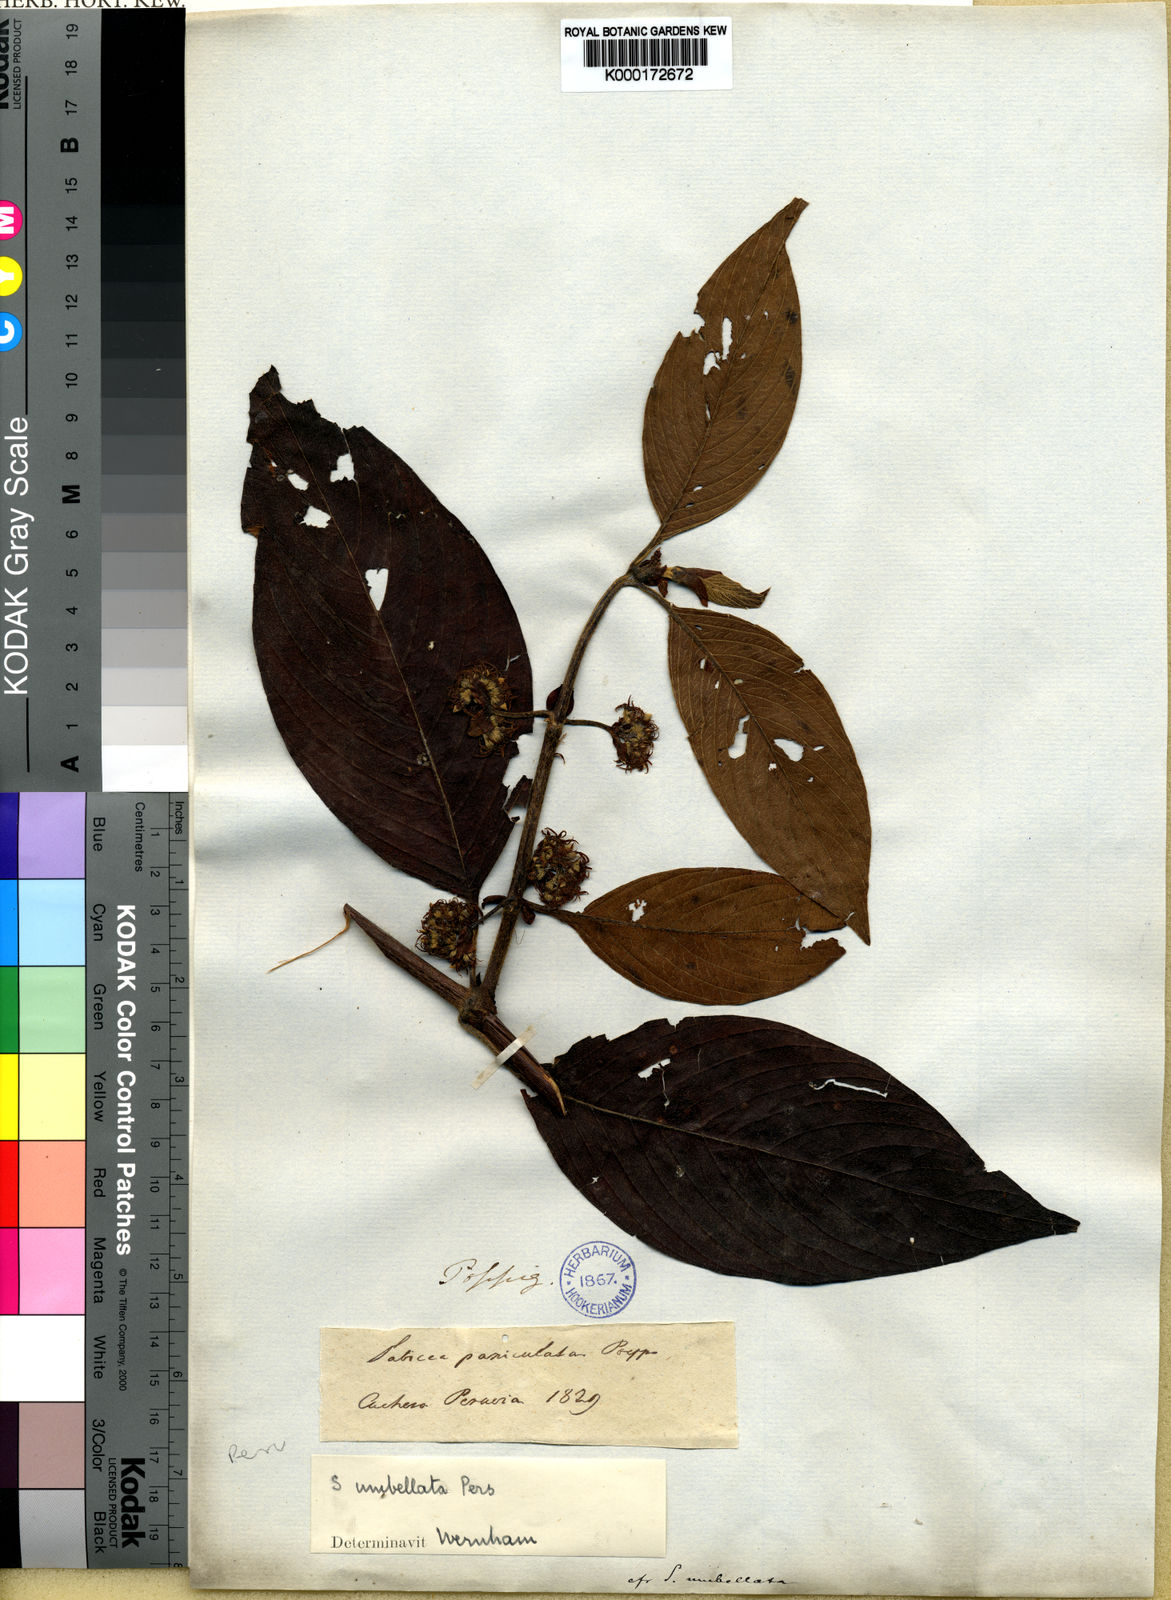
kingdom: Plantae
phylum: Tracheophyta
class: Magnoliopsida
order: Gentianales
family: Rubiaceae
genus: Sabicea
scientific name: Sabicea umbellata
